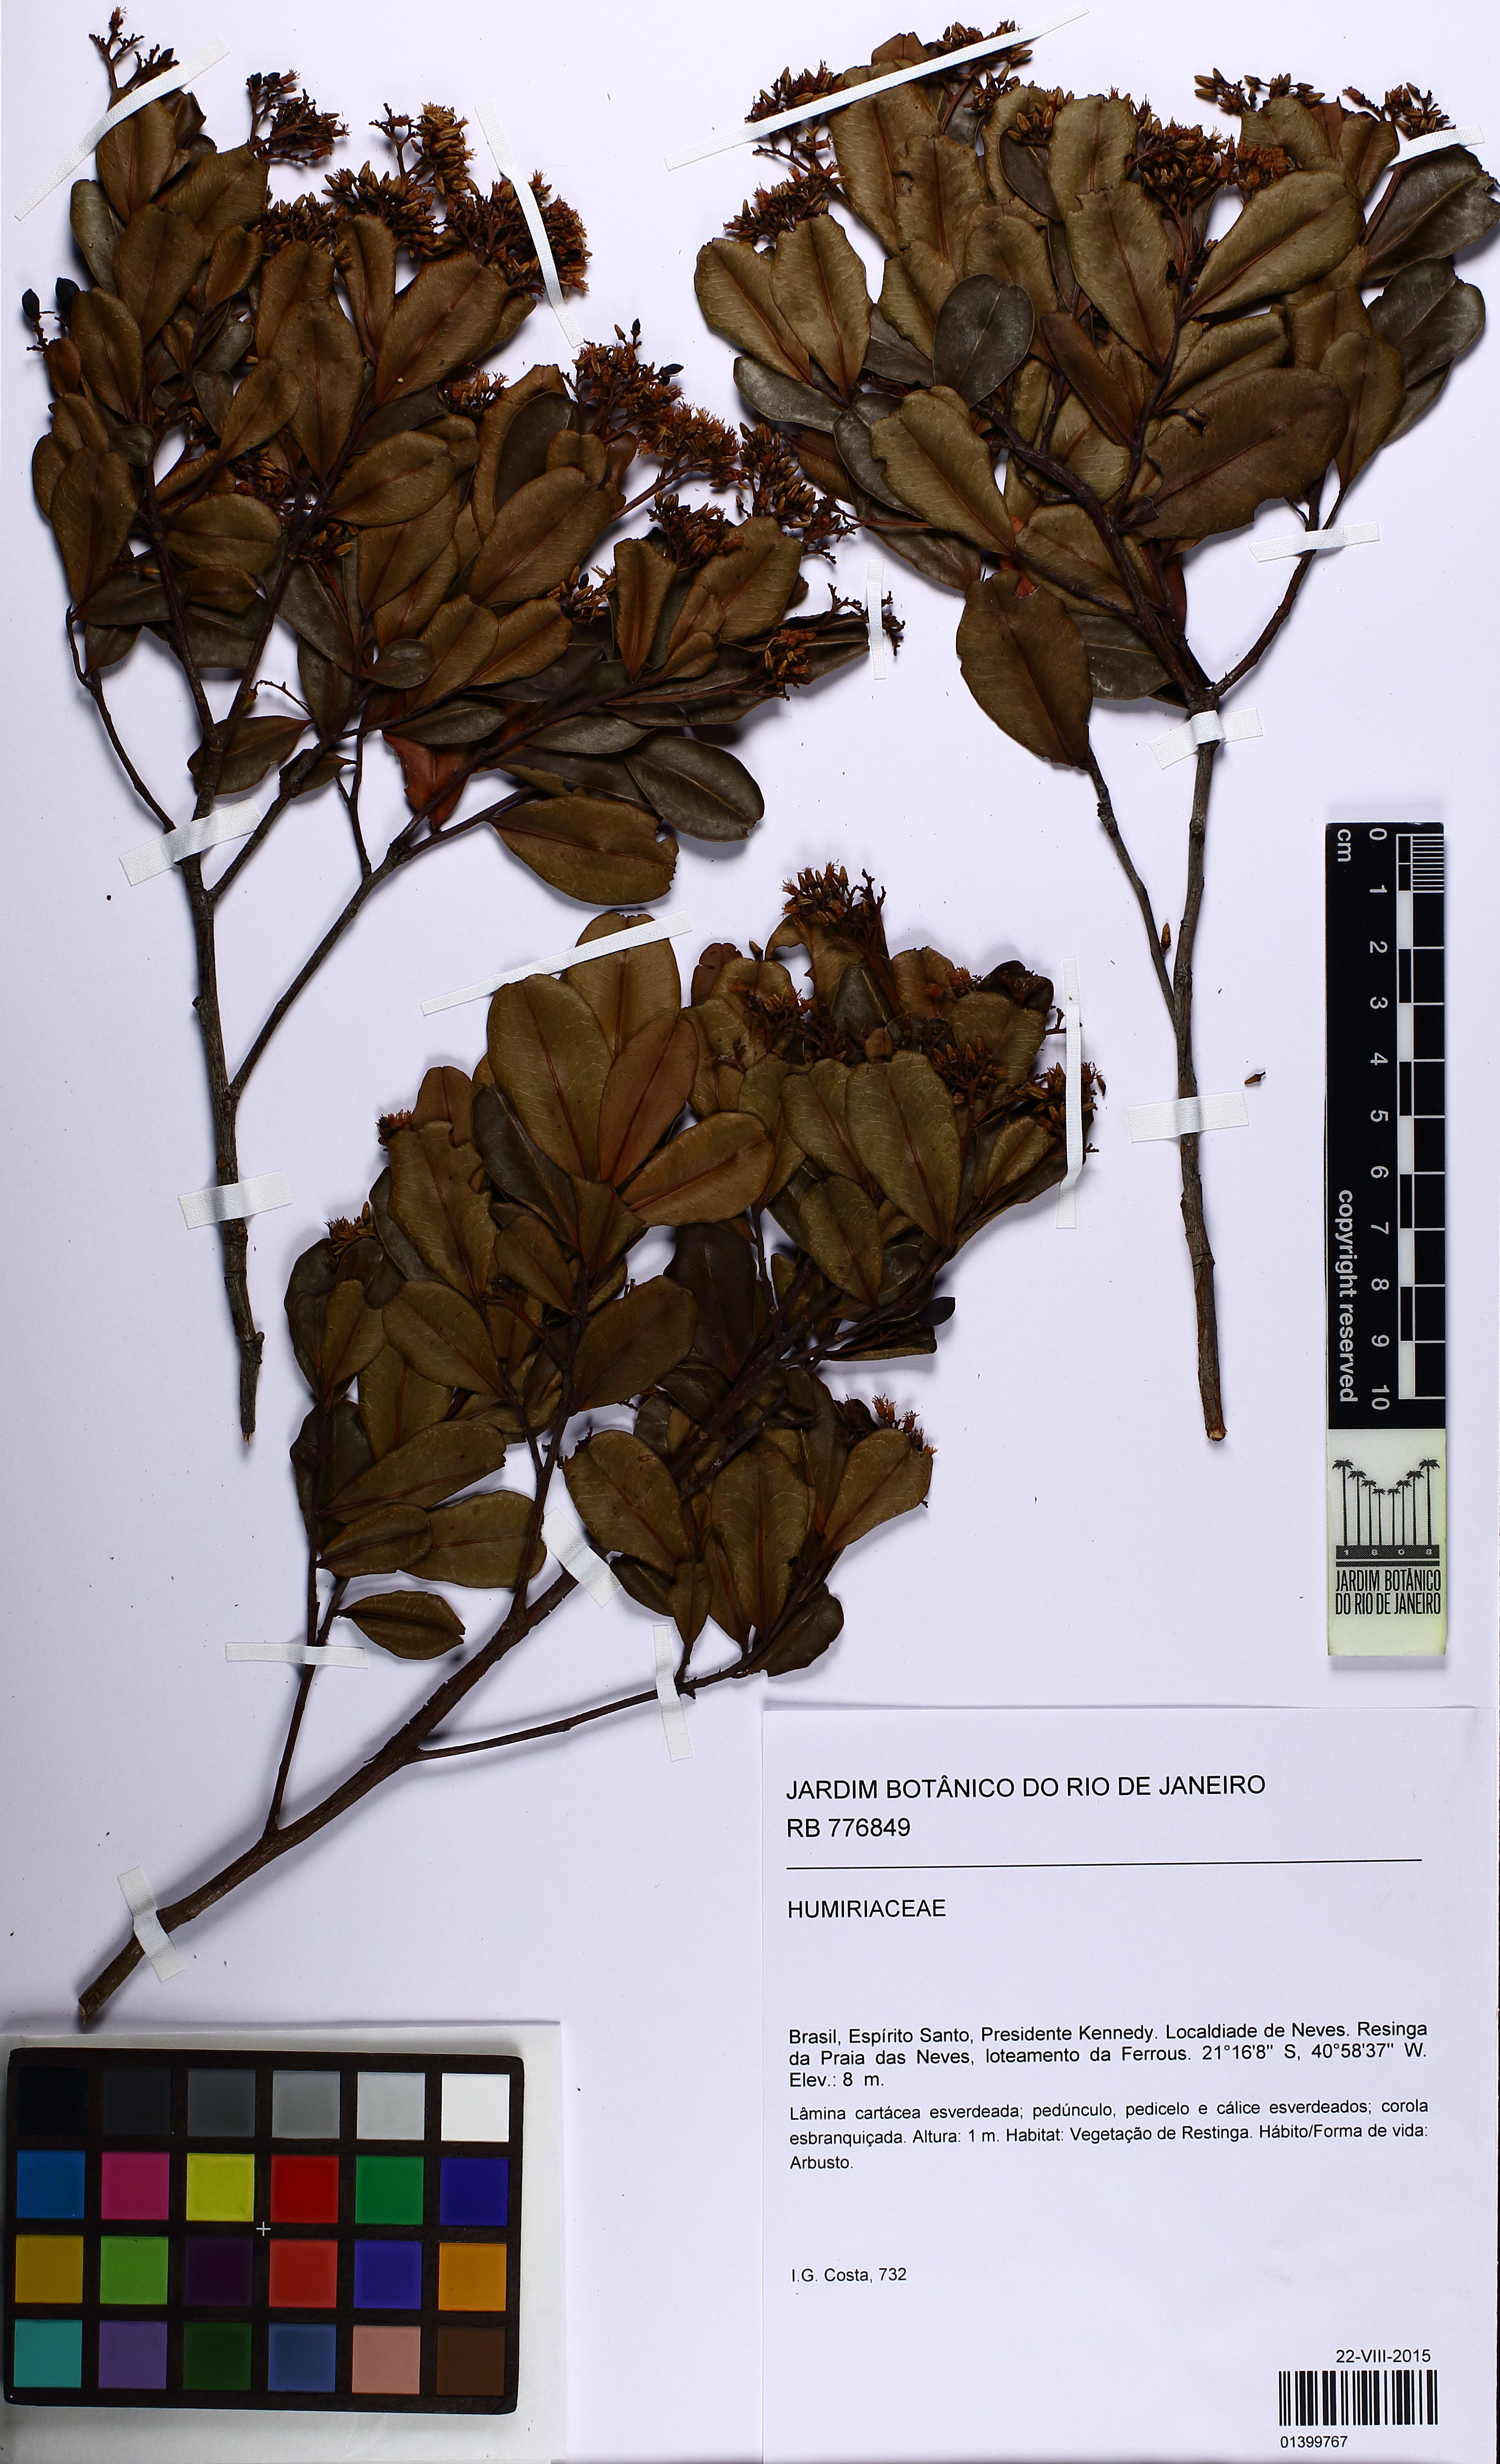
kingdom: Plantae
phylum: Tracheophyta
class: Magnoliopsida
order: Malpighiales
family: Humiriaceae
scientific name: Humiriaceae
